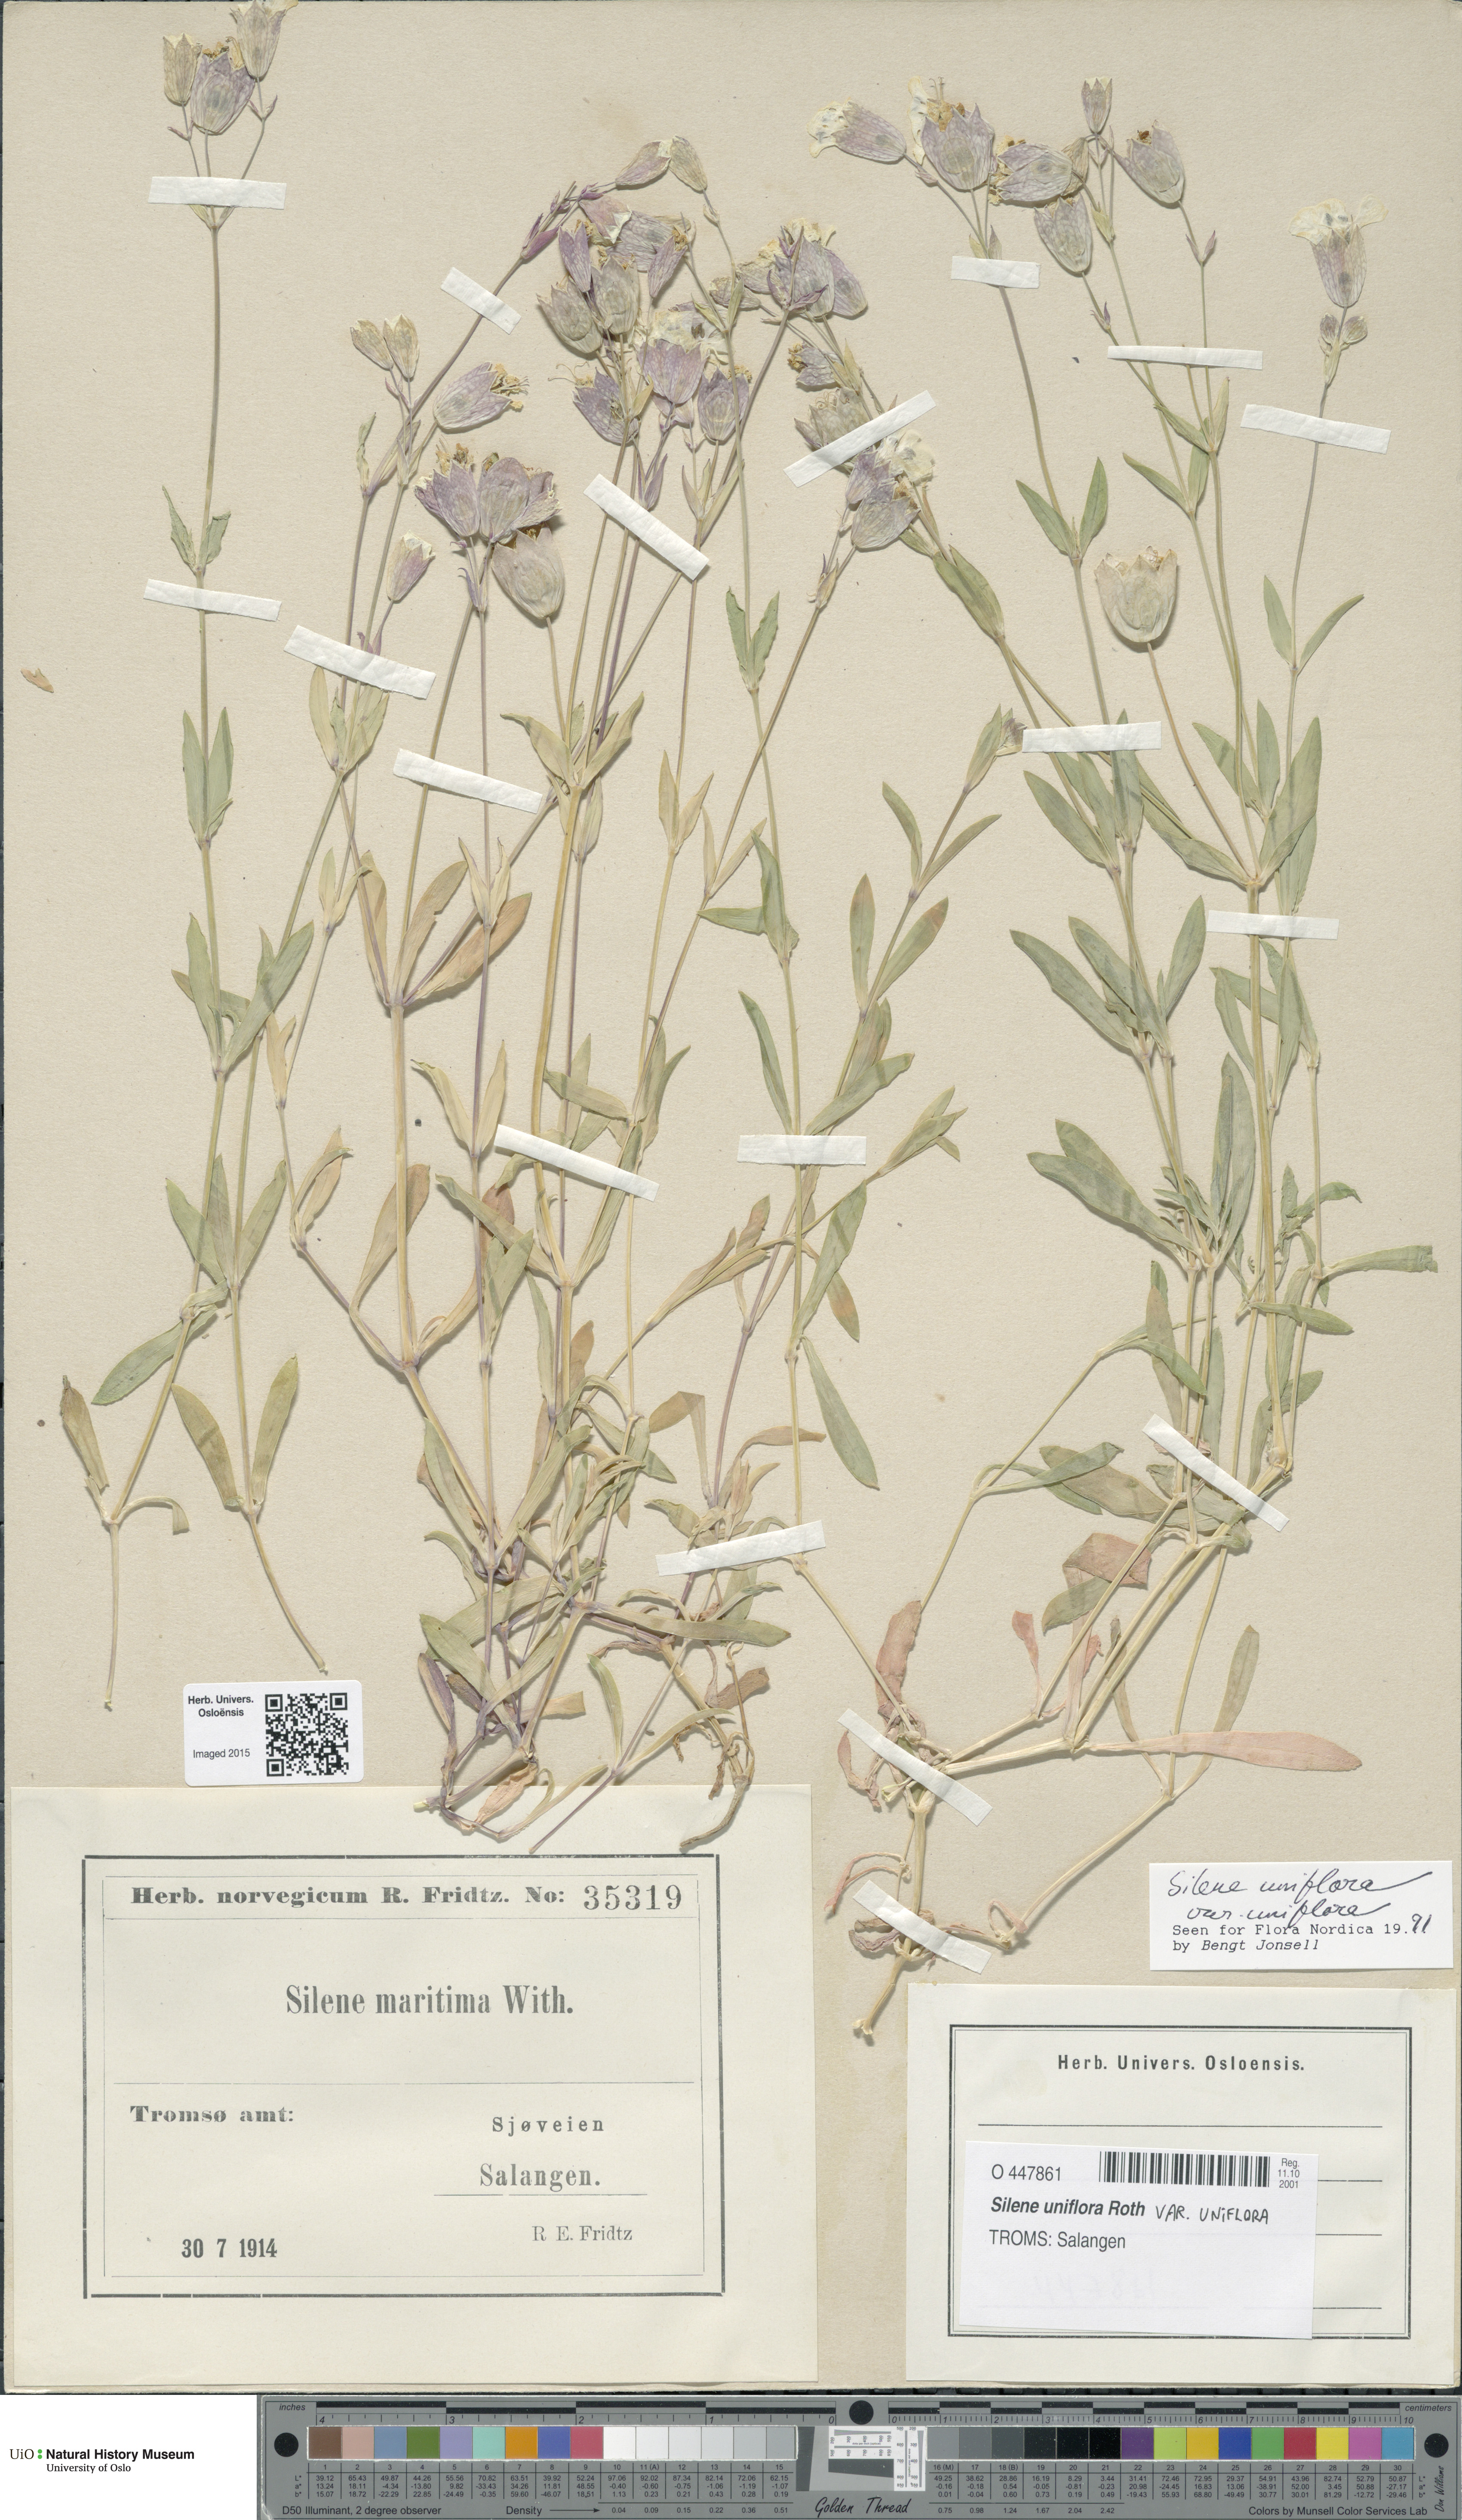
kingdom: Plantae
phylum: Tracheophyta
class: Magnoliopsida
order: Caryophyllales
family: Caryophyllaceae
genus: Silene
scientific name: Silene uniflora
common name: Sea campion
